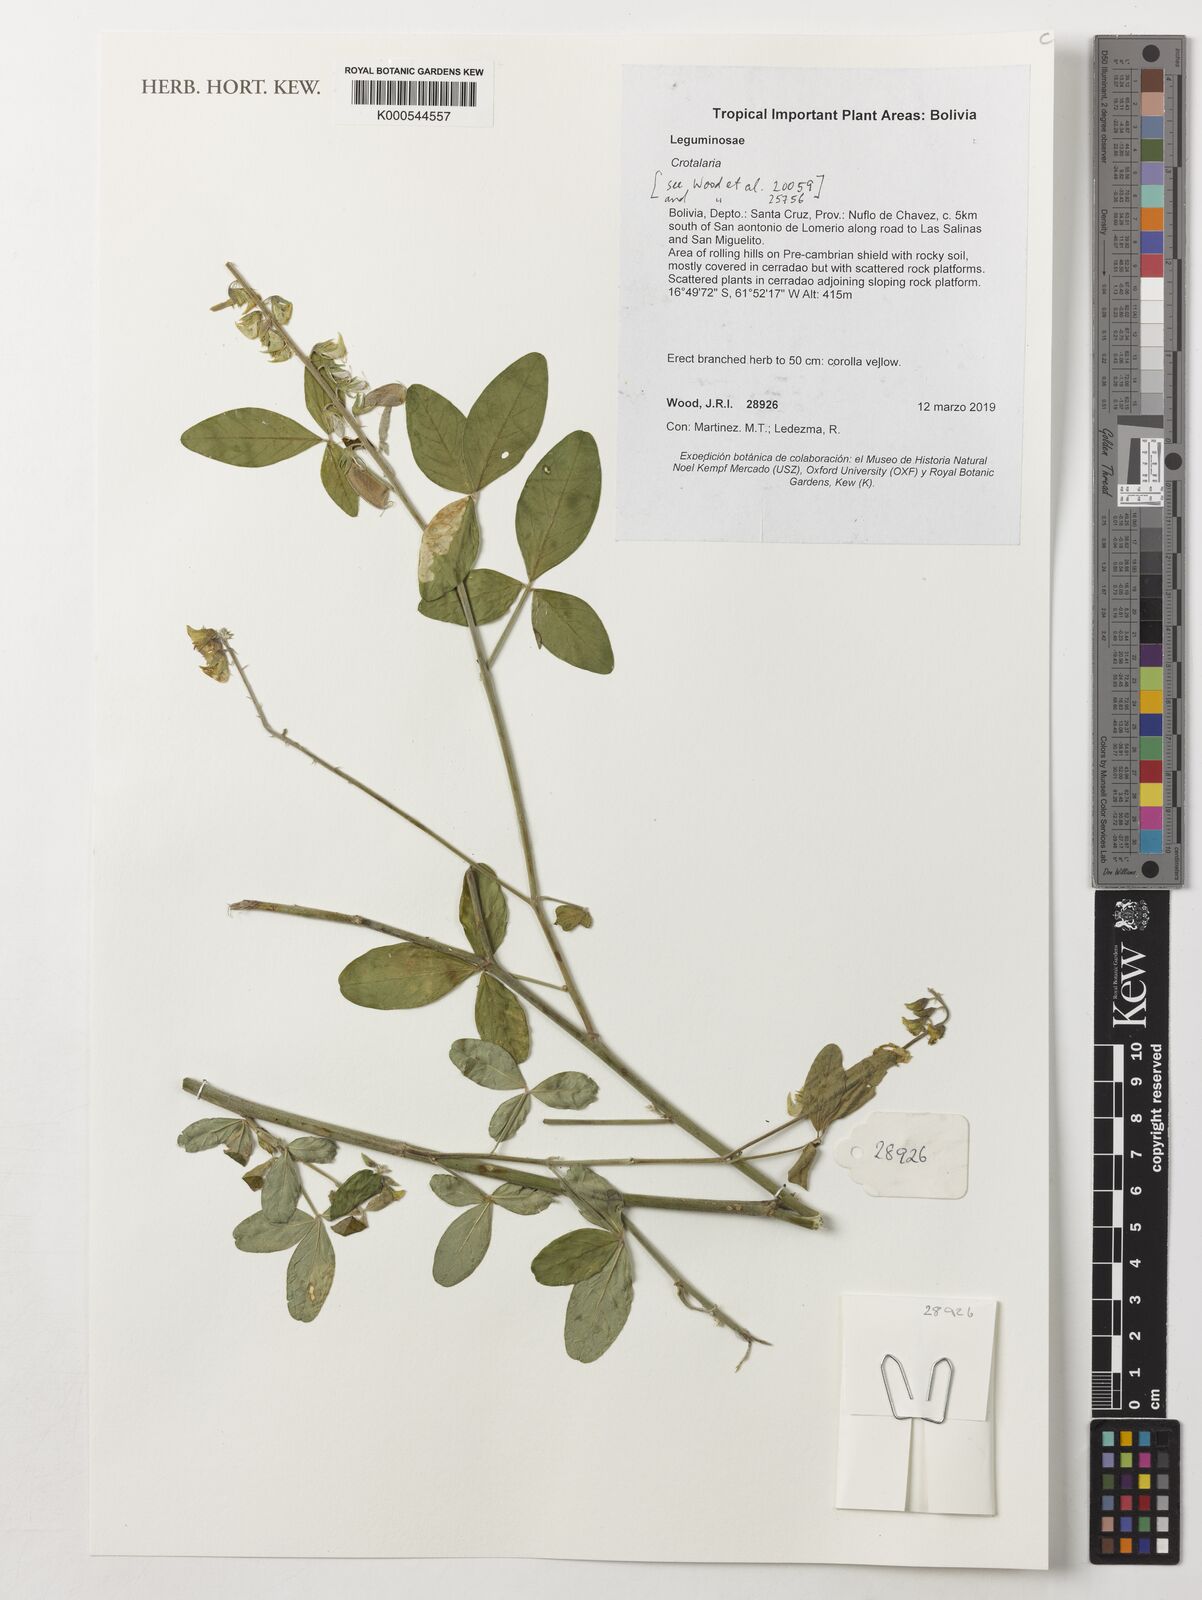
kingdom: Plantae
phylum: Tracheophyta
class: Magnoliopsida
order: Fabales
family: Fabaceae
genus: Crotalaria
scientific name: Crotalaria
